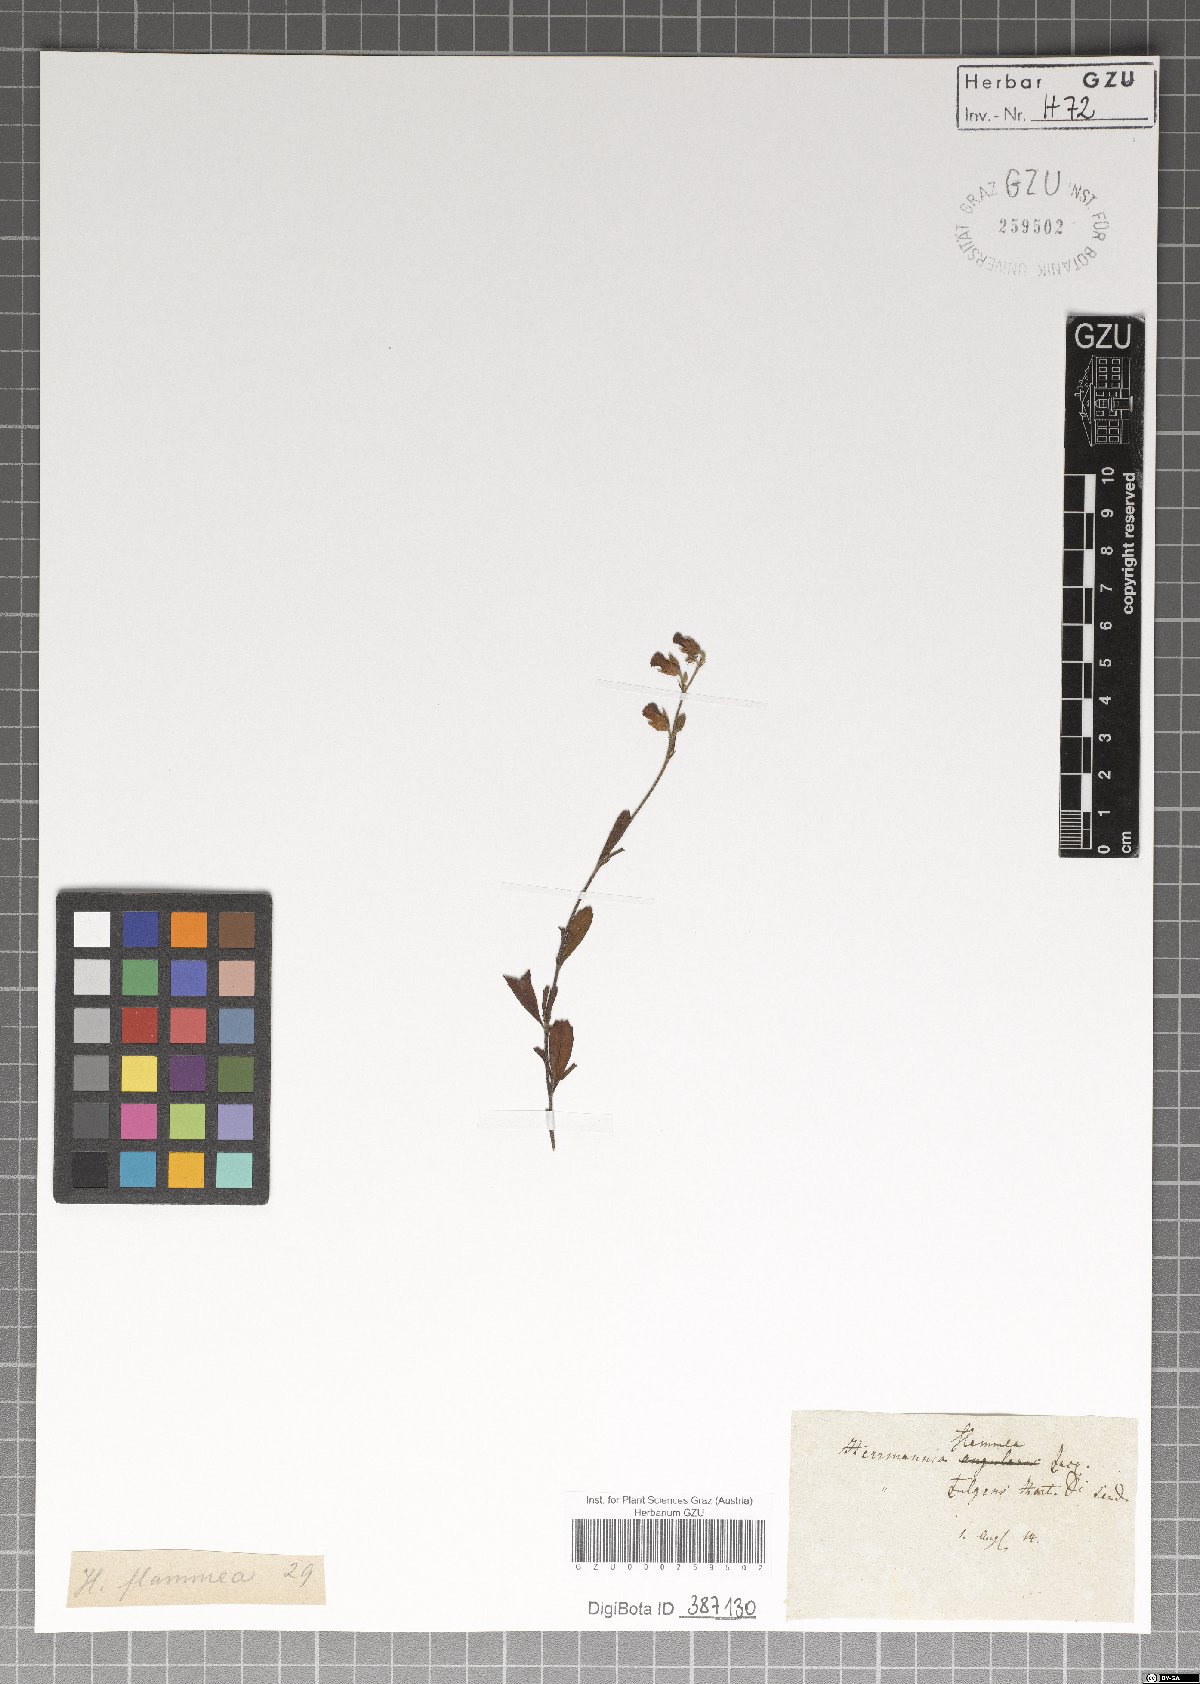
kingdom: Plantae
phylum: Tracheophyta
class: Magnoliopsida
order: Malvales
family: Malvaceae
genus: Hermannia
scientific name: Hermannia flammea
